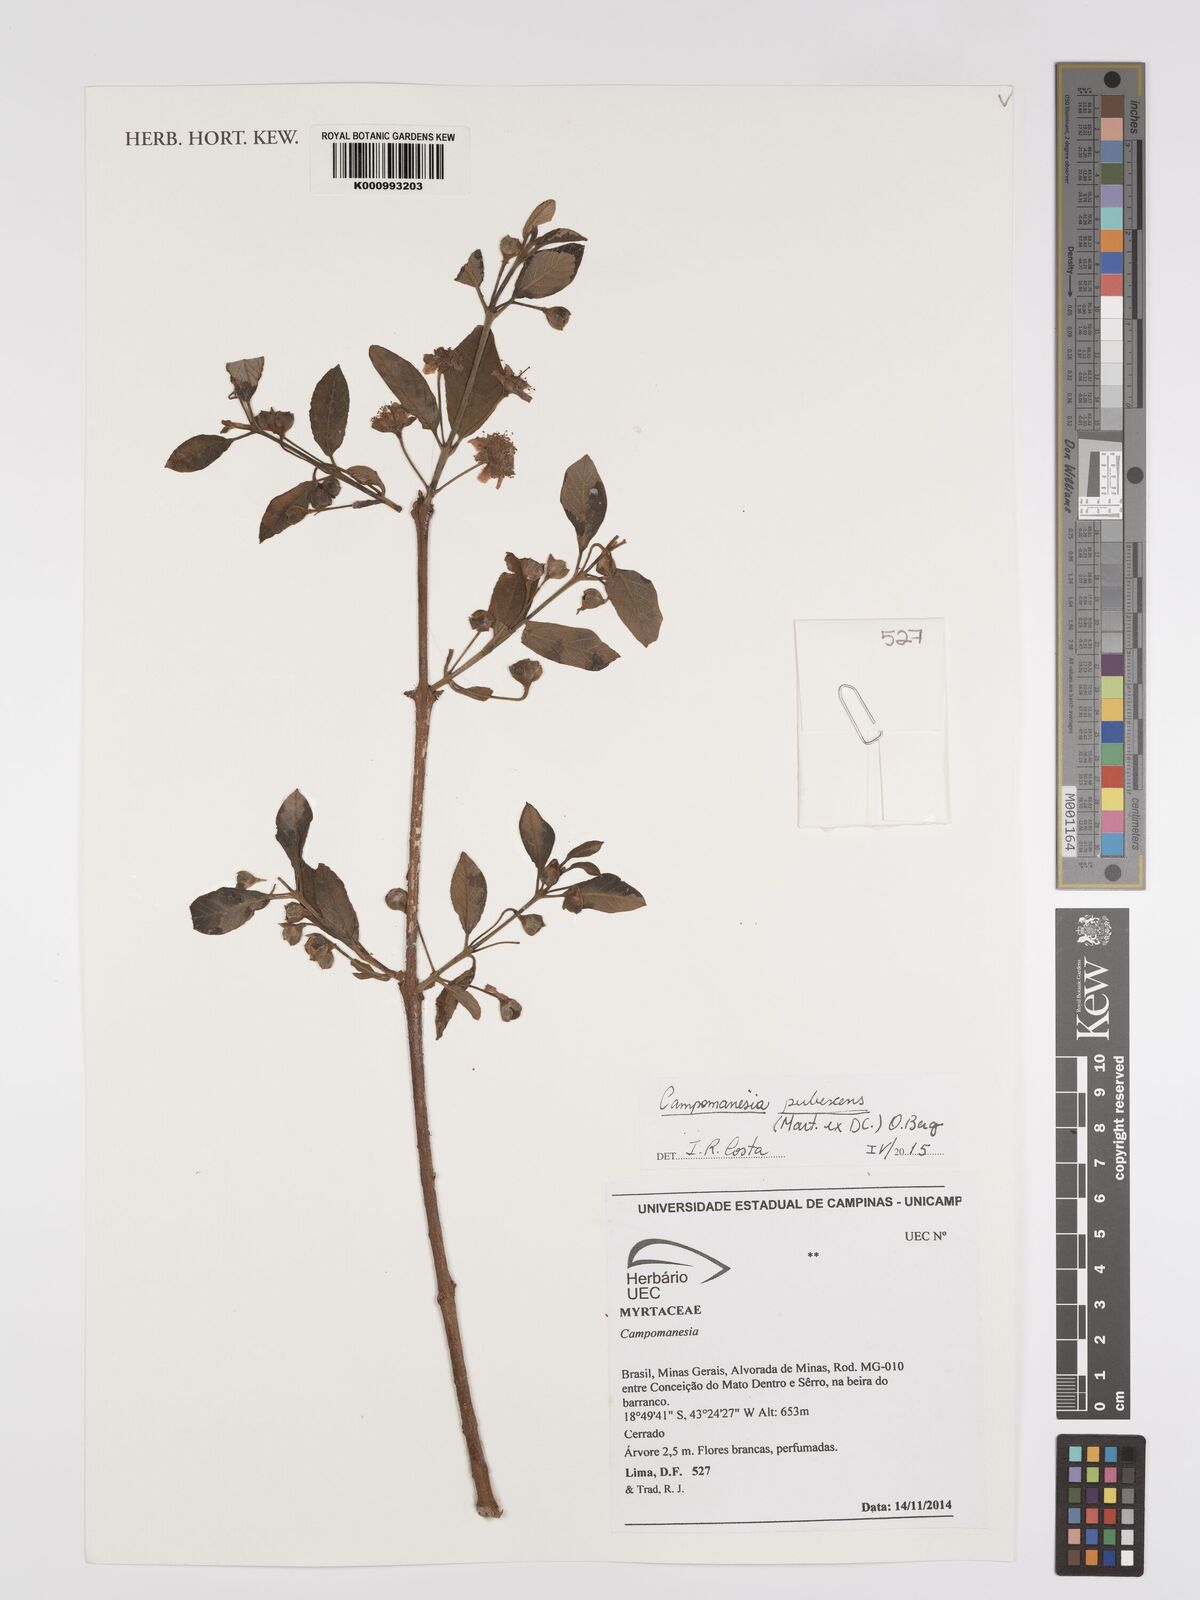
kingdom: Plantae
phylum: Tracheophyta
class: Magnoliopsida
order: Myrtales
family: Myrtaceae
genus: Campomanesia
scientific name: Campomanesia pubescens
